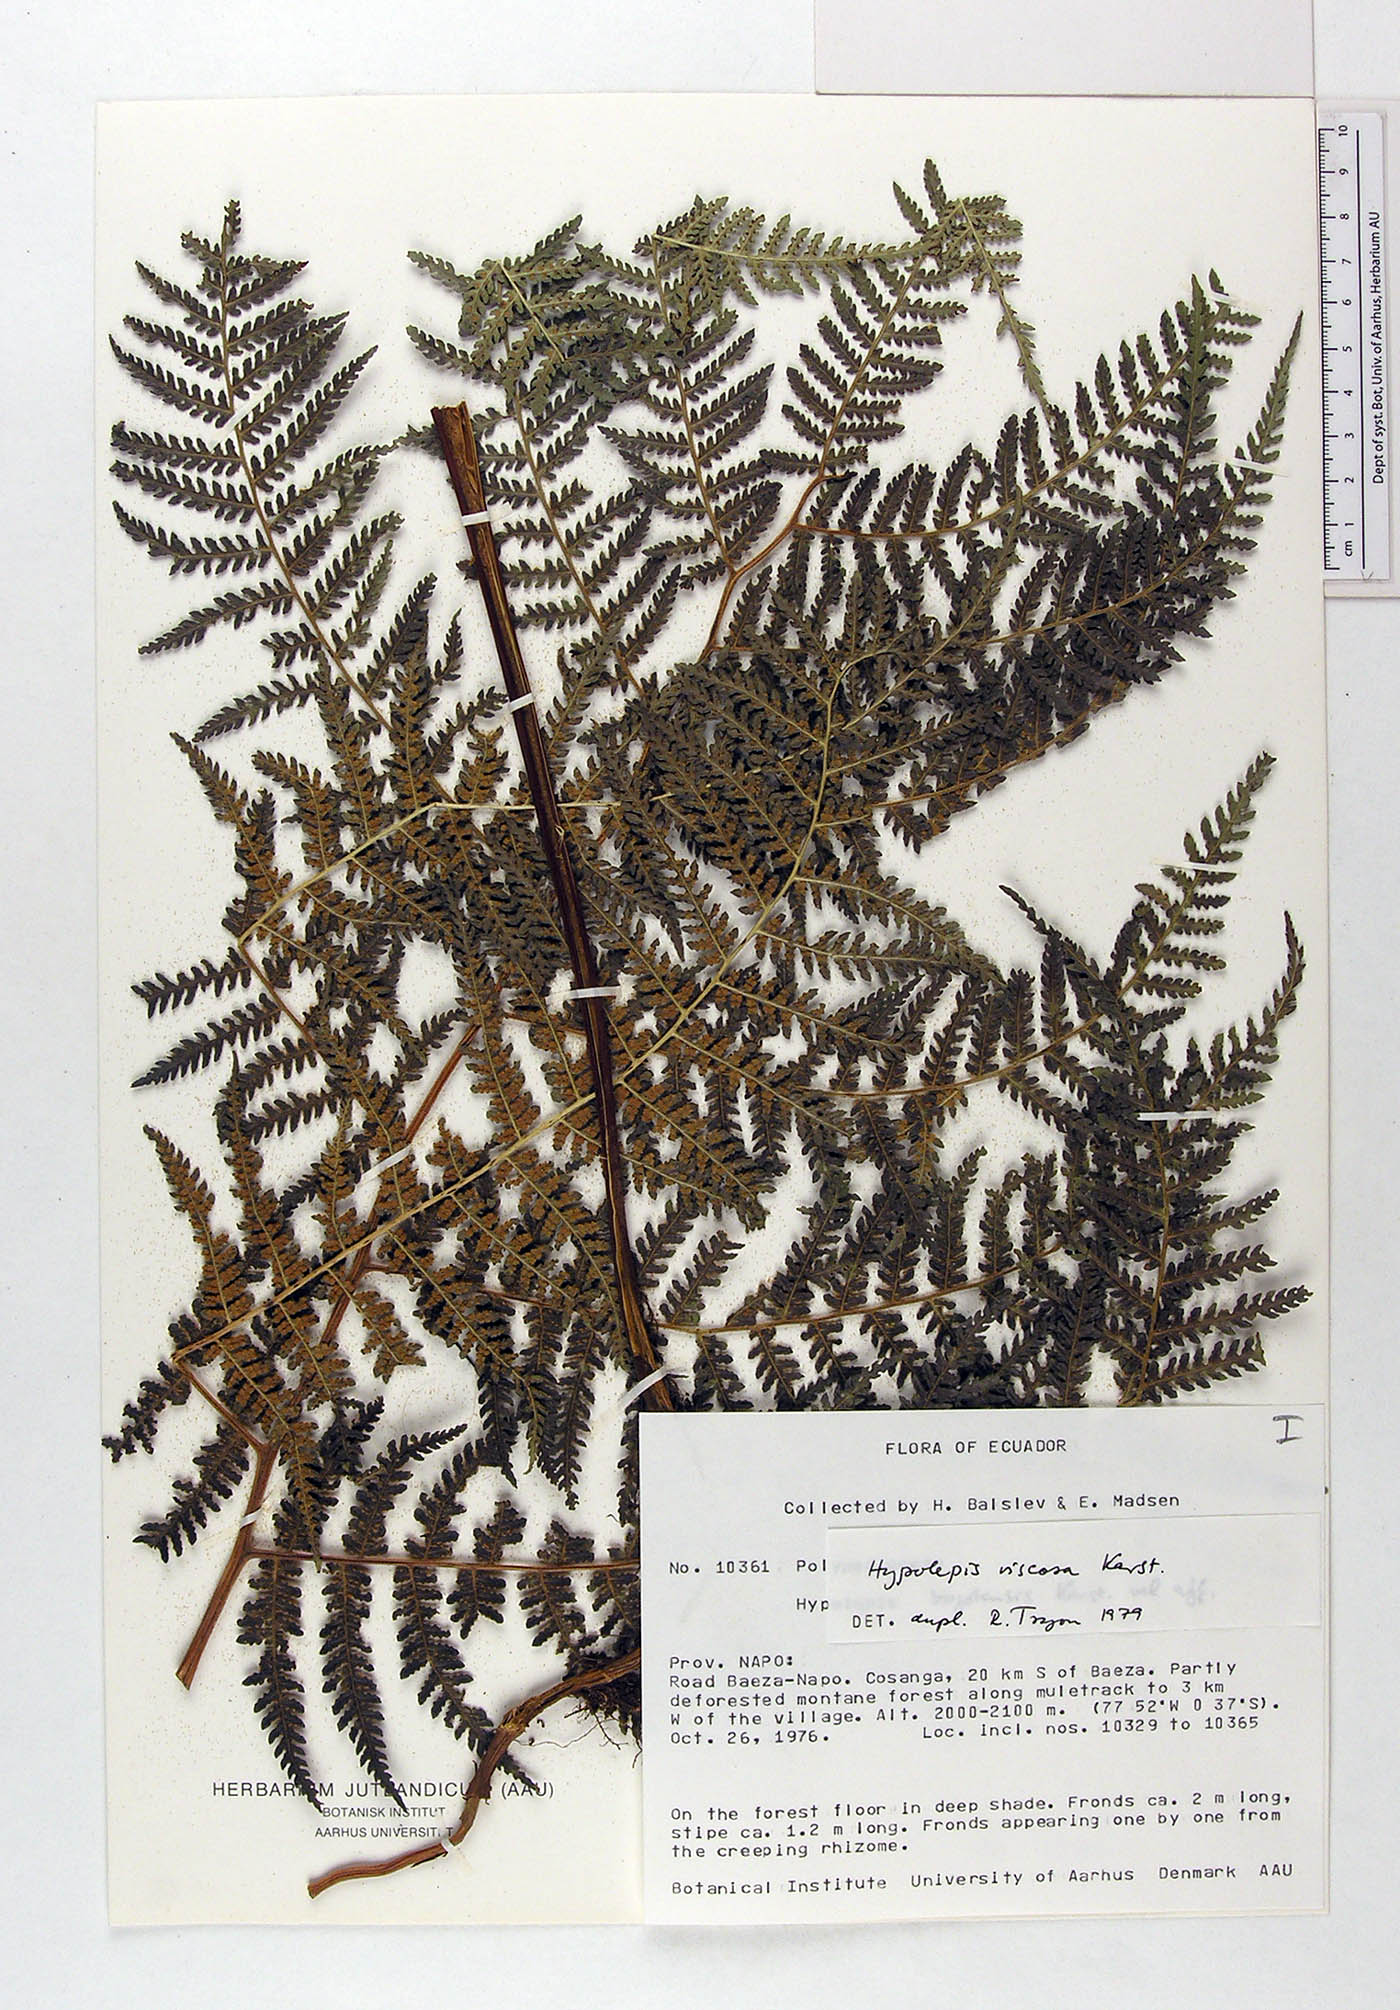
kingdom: Plantae
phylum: Tracheophyta
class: Polypodiopsida
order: Polypodiales
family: Dennstaedtiaceae
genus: Hypolepis
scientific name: Hypolepis bogotensis
